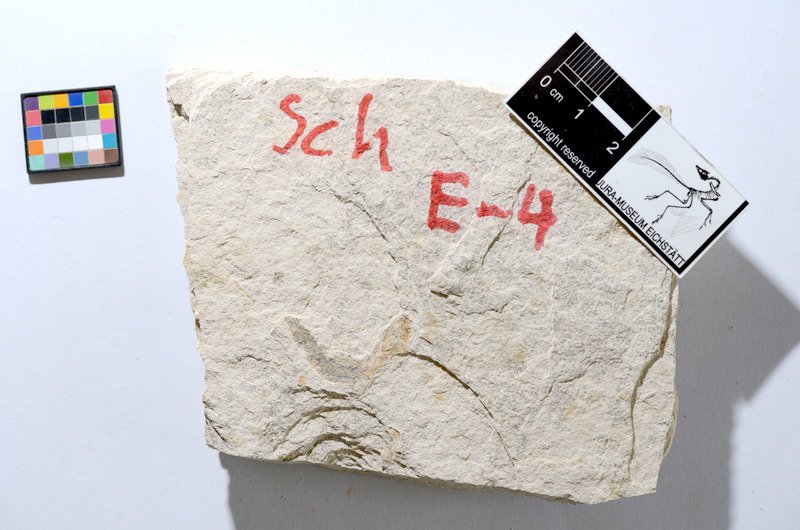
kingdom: Animalia
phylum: Chordata
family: Ascalaboidae
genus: Tharsis
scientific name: Tharsis dubius
